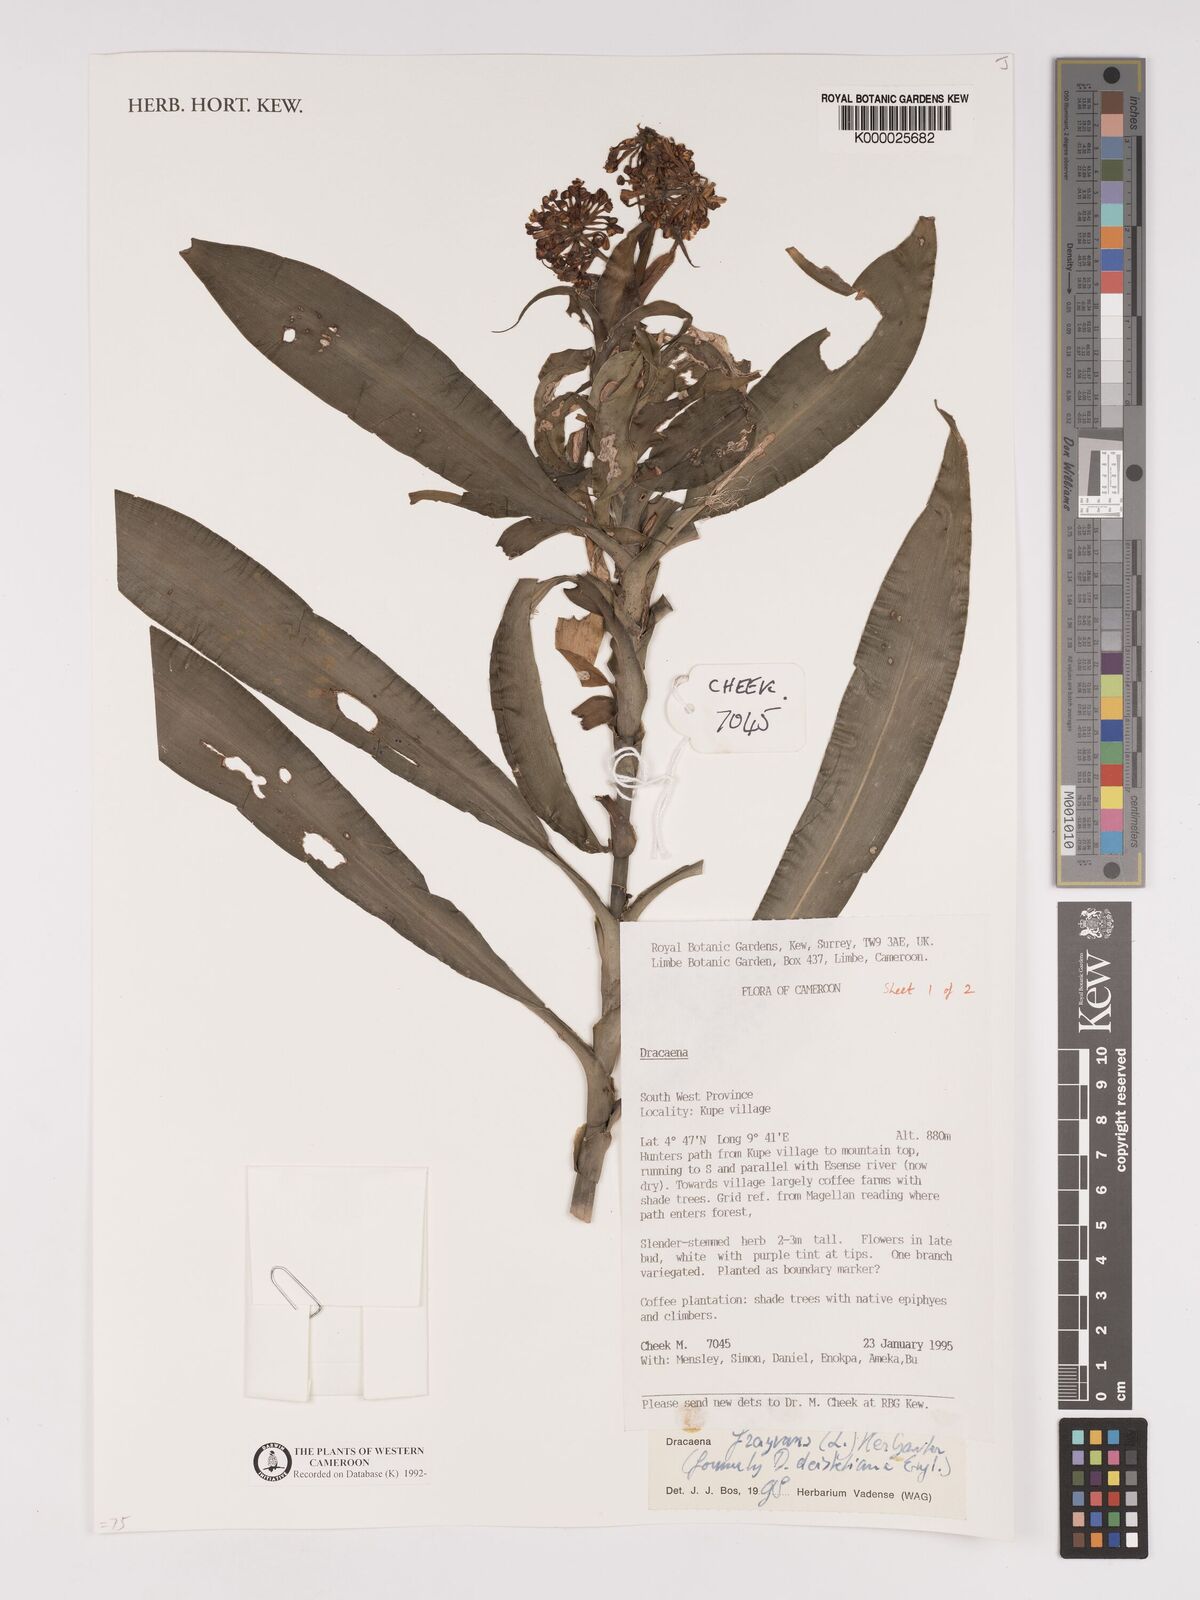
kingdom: Plantae
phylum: Tracheophyta
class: Liliopsida
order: Asparagales
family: Asparagaceae
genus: Dracaena
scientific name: Dracaena fragrans
